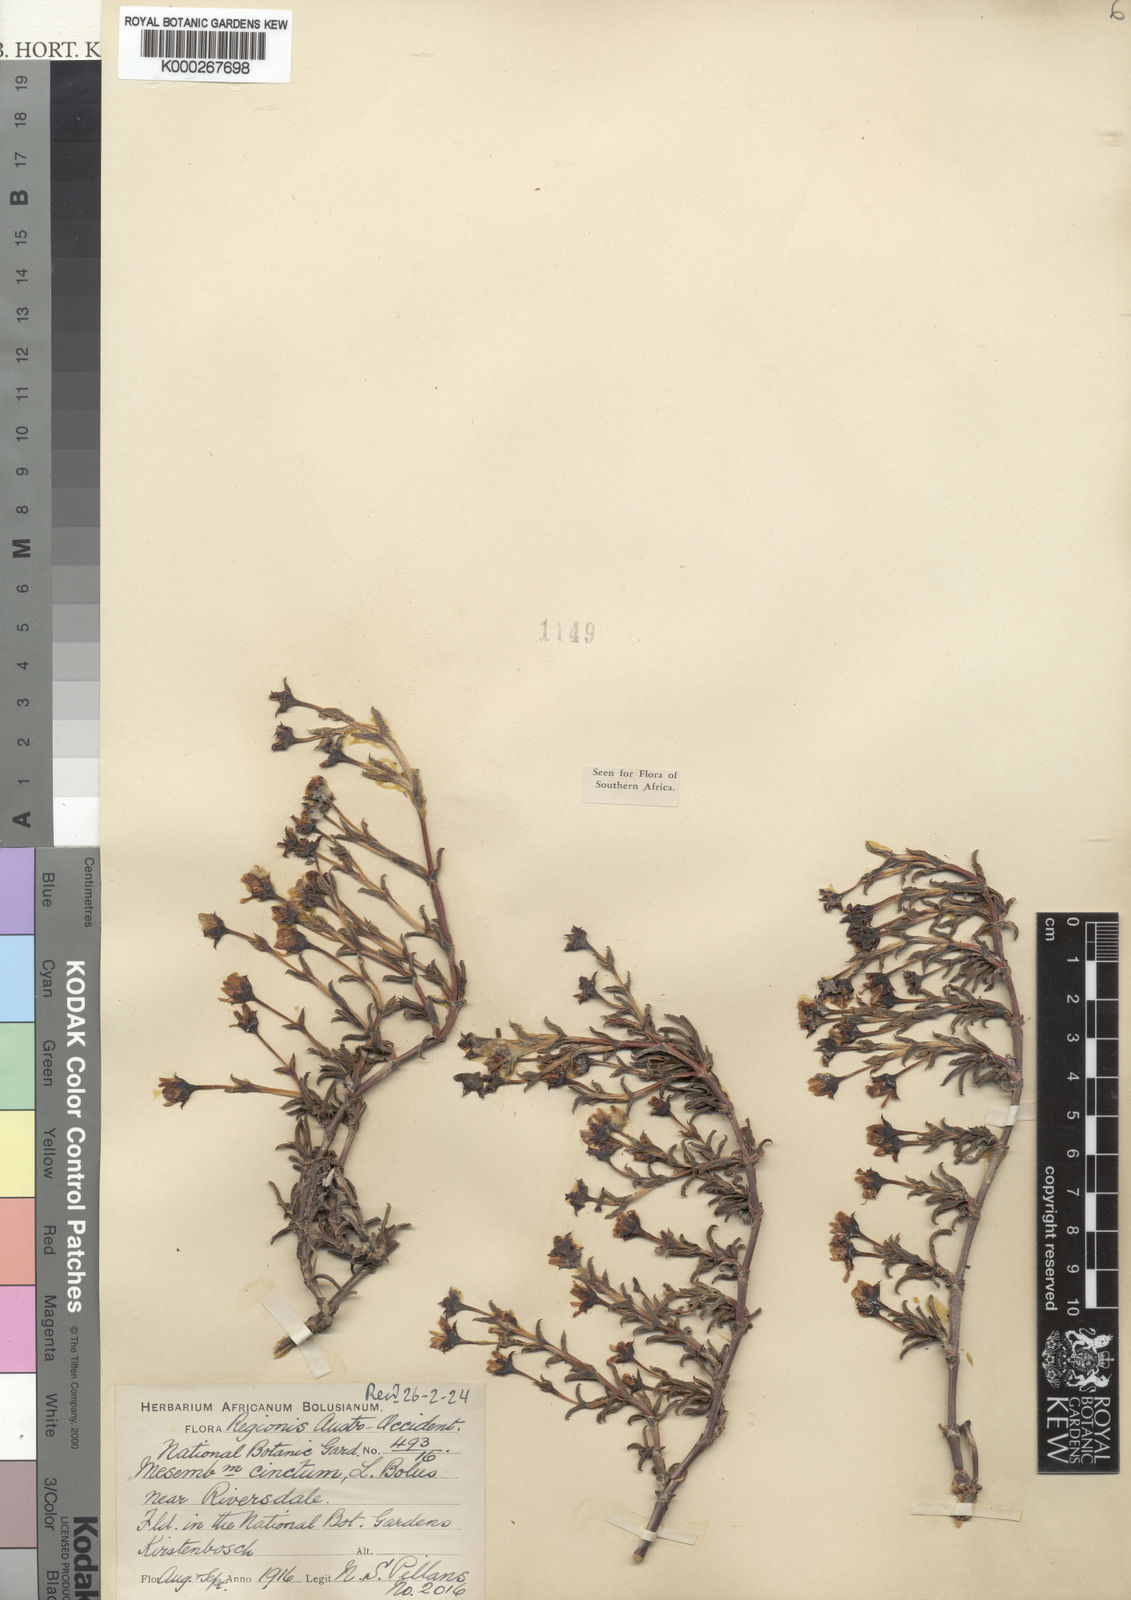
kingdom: Plantae
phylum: Tracheophyta
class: Magnoliopsida
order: Caryophyllales
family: Aizoaceae
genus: Ruschia
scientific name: Ruschia cincta
